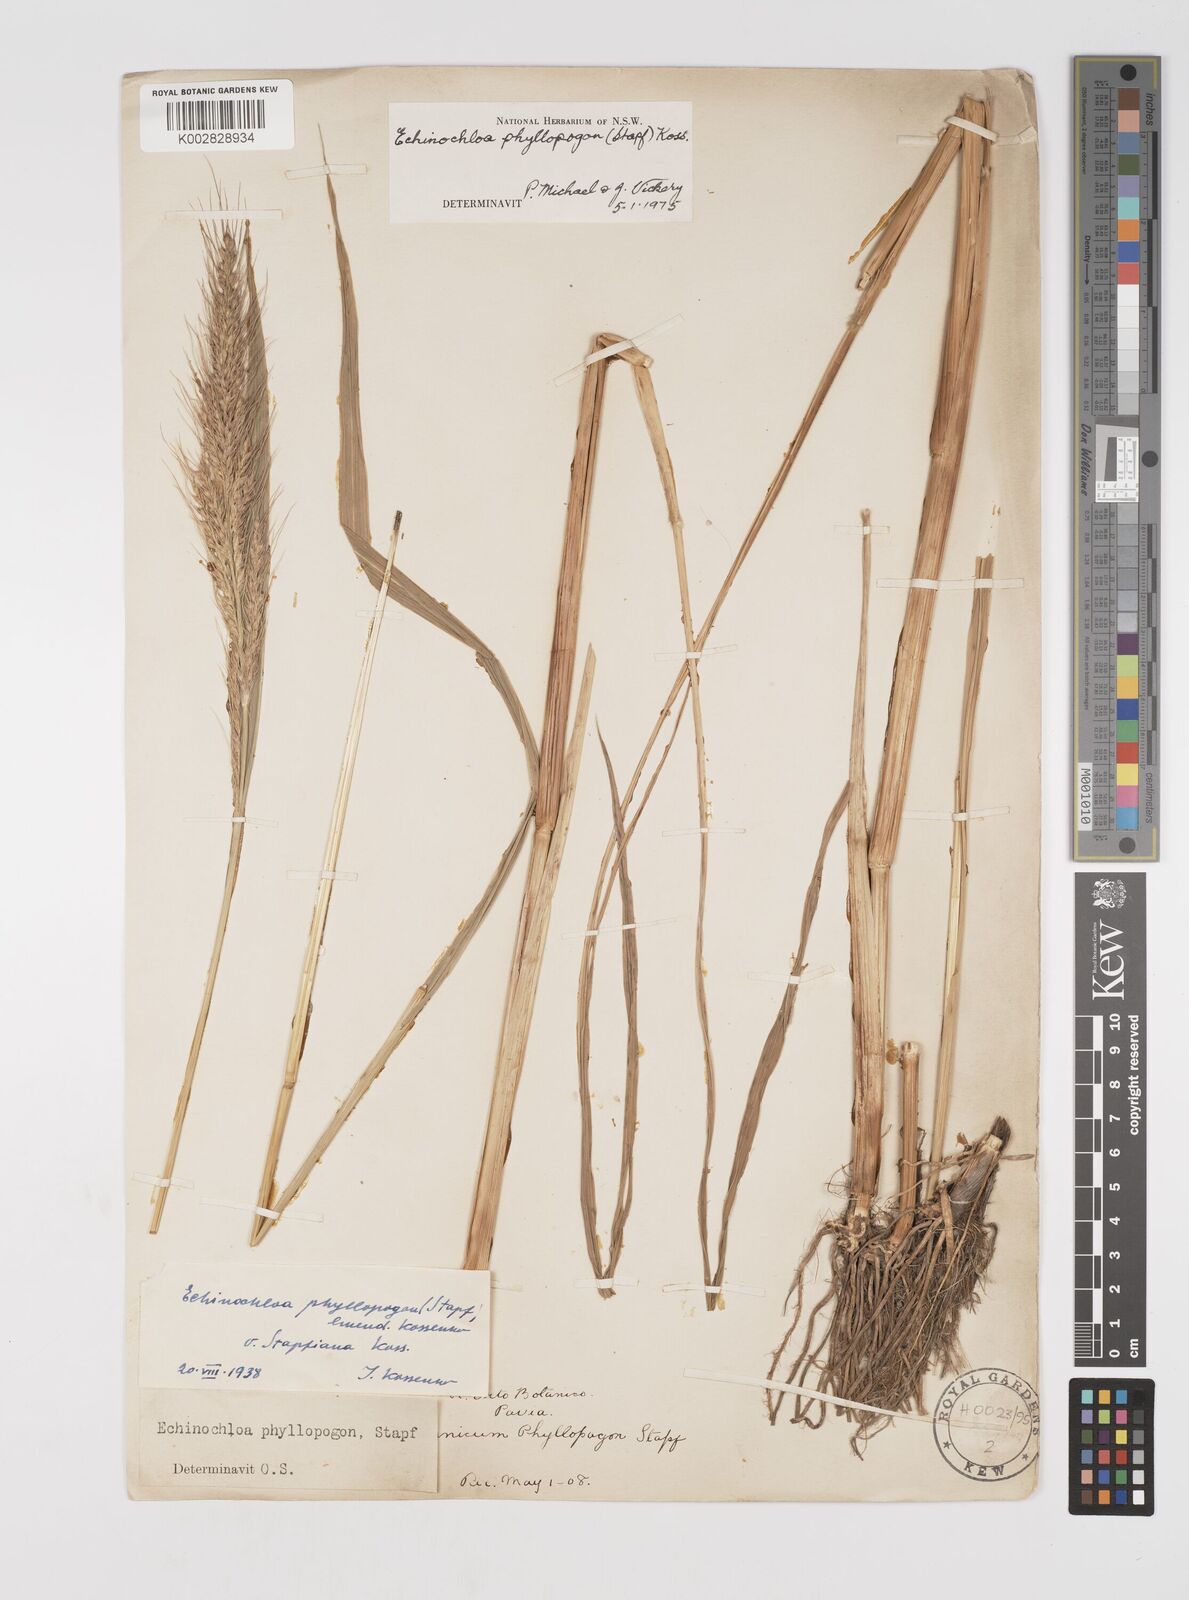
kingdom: Plantae
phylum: Tracheophyta
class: Liliopsida
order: Poales
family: Poaceae
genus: Echinochloa
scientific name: Echinochloa oryzoides
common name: Early water grass
